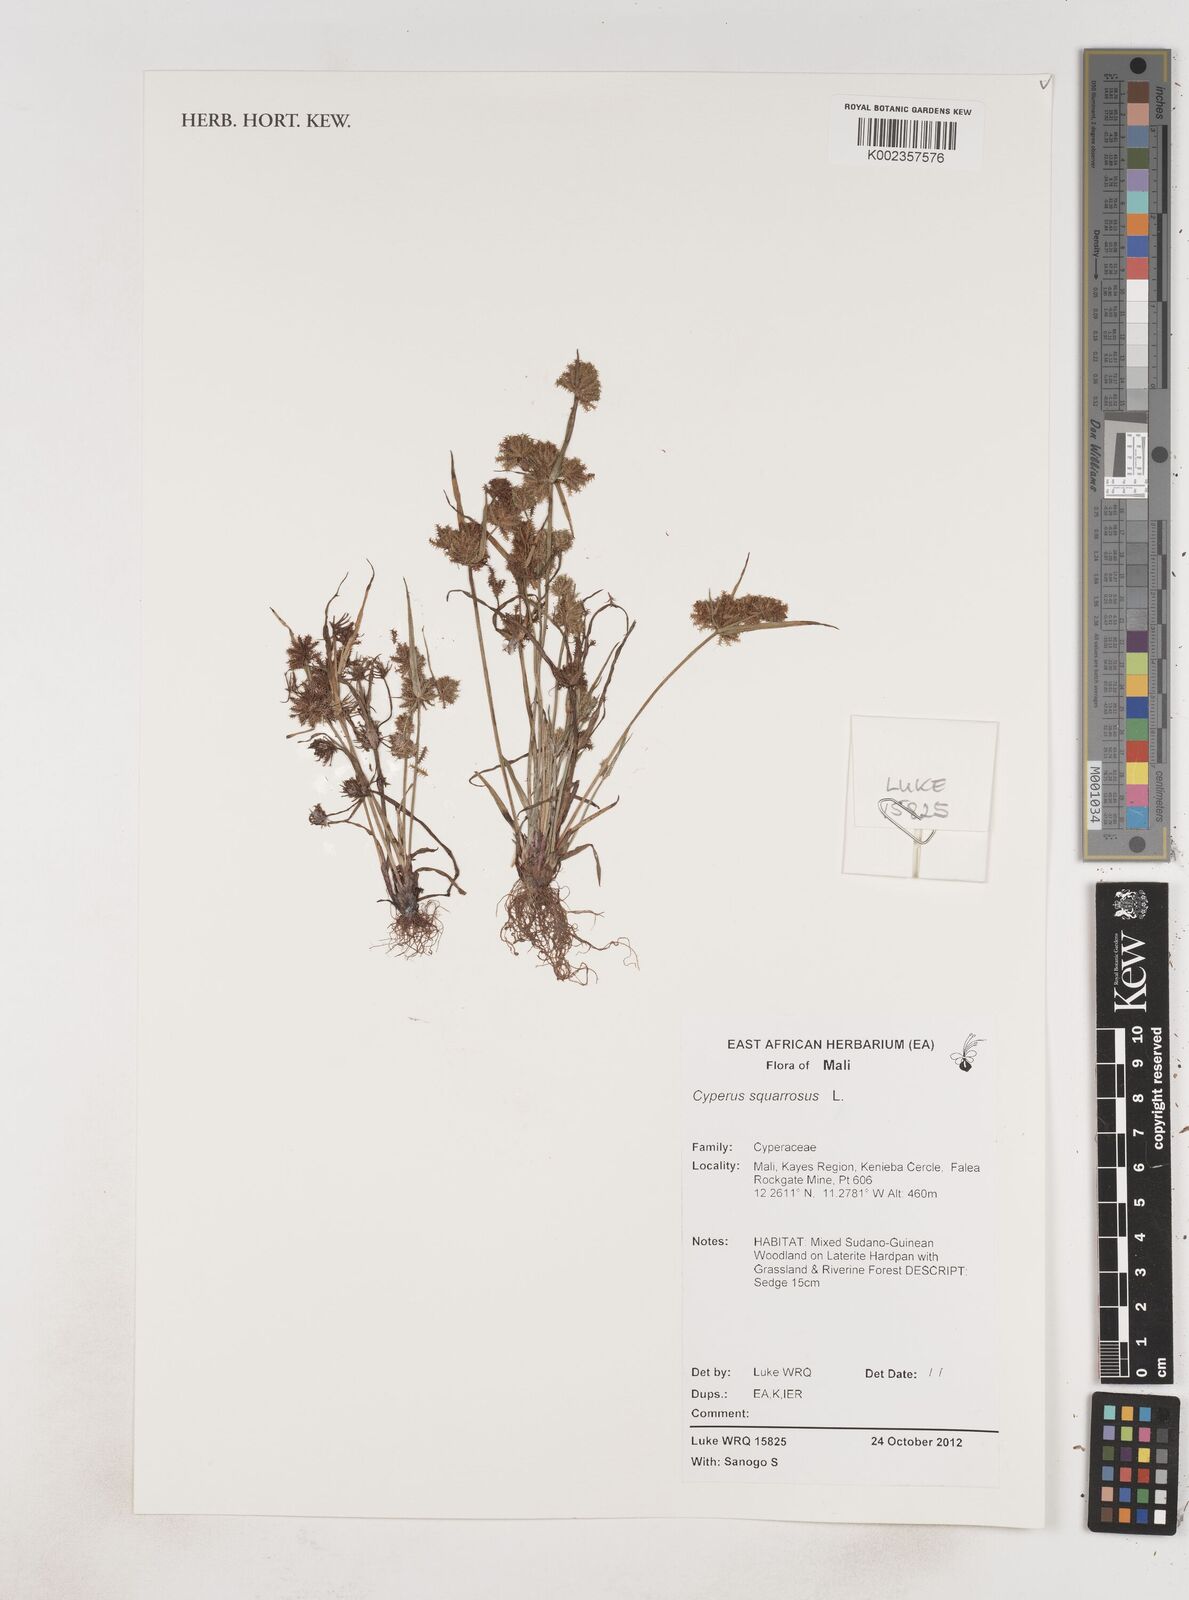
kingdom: Plantae
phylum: Tracheophyta
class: Liliopsida
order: Poales
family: Cyperaceae
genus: Cyperus
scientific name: Cyperus squarrosus
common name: Awned cyperus
